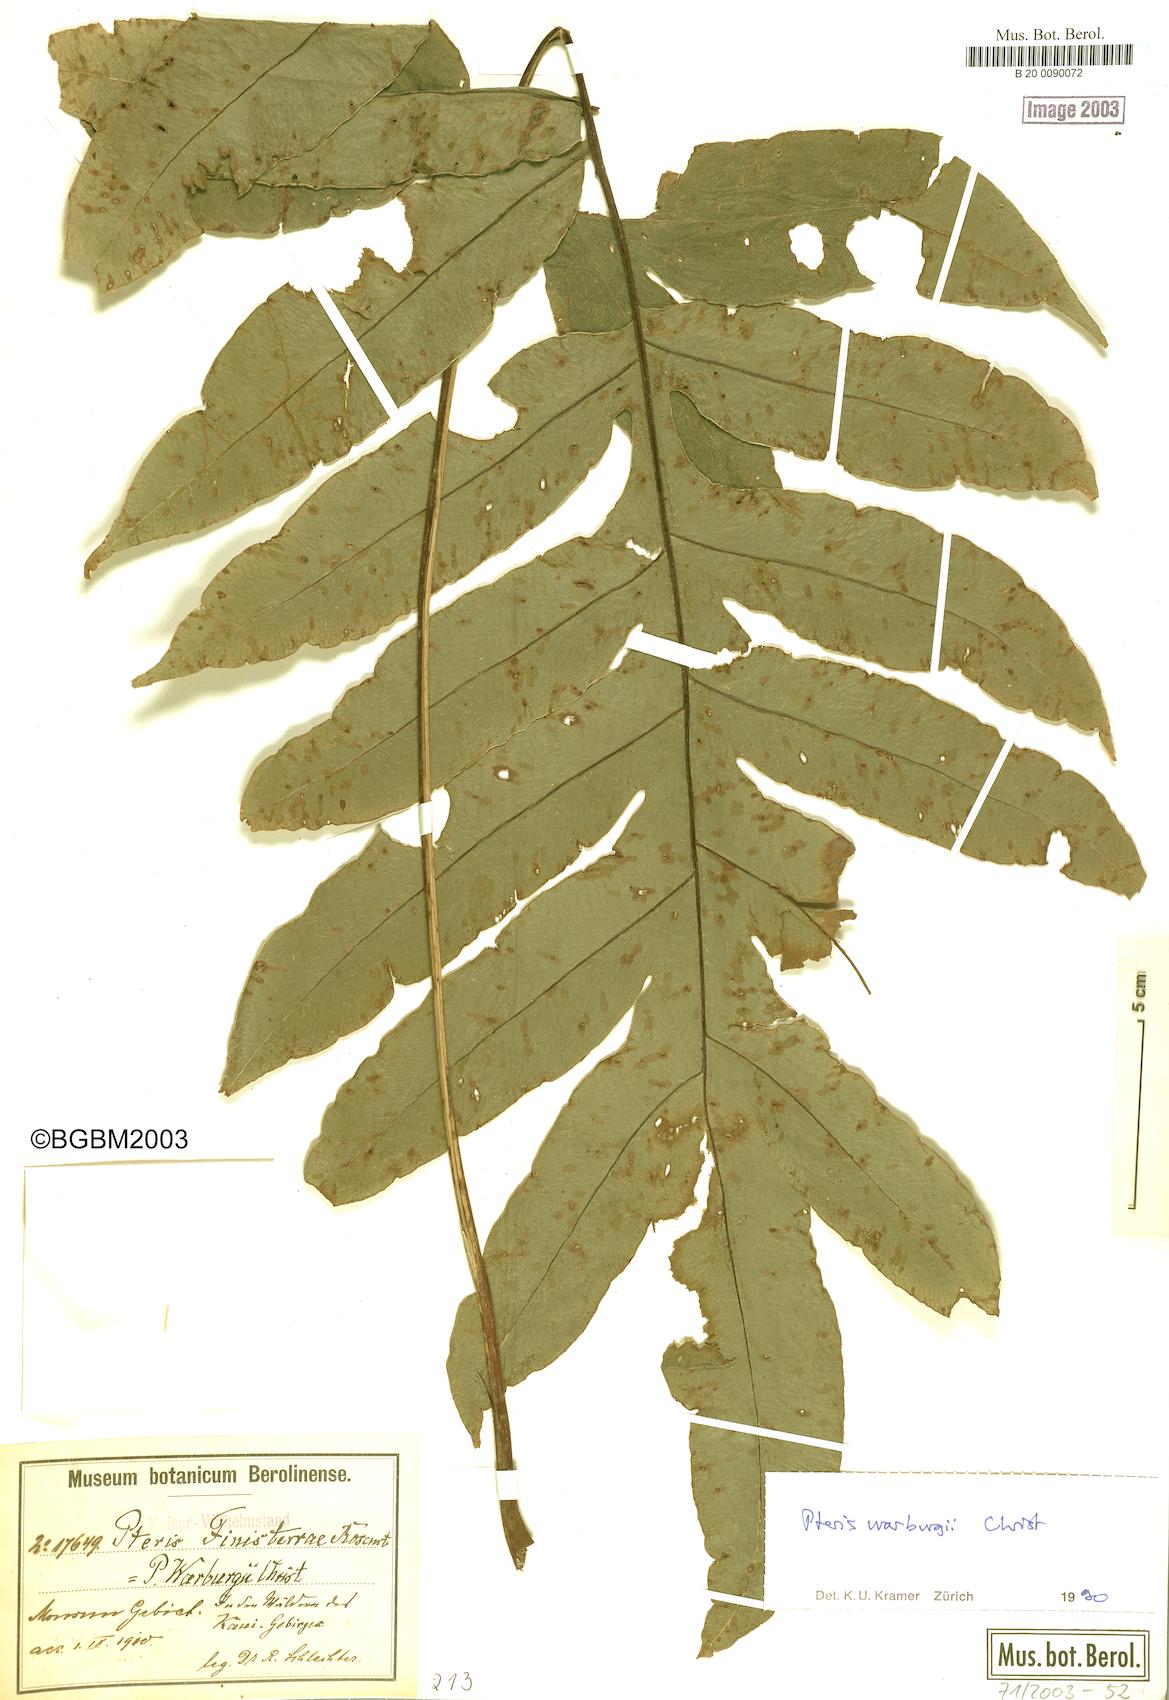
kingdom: Plantae
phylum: Tracheophyta
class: Polypodiopsida
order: Polypodiales
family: Pteridaceae
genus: Pteris
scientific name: Pteris warburgii
